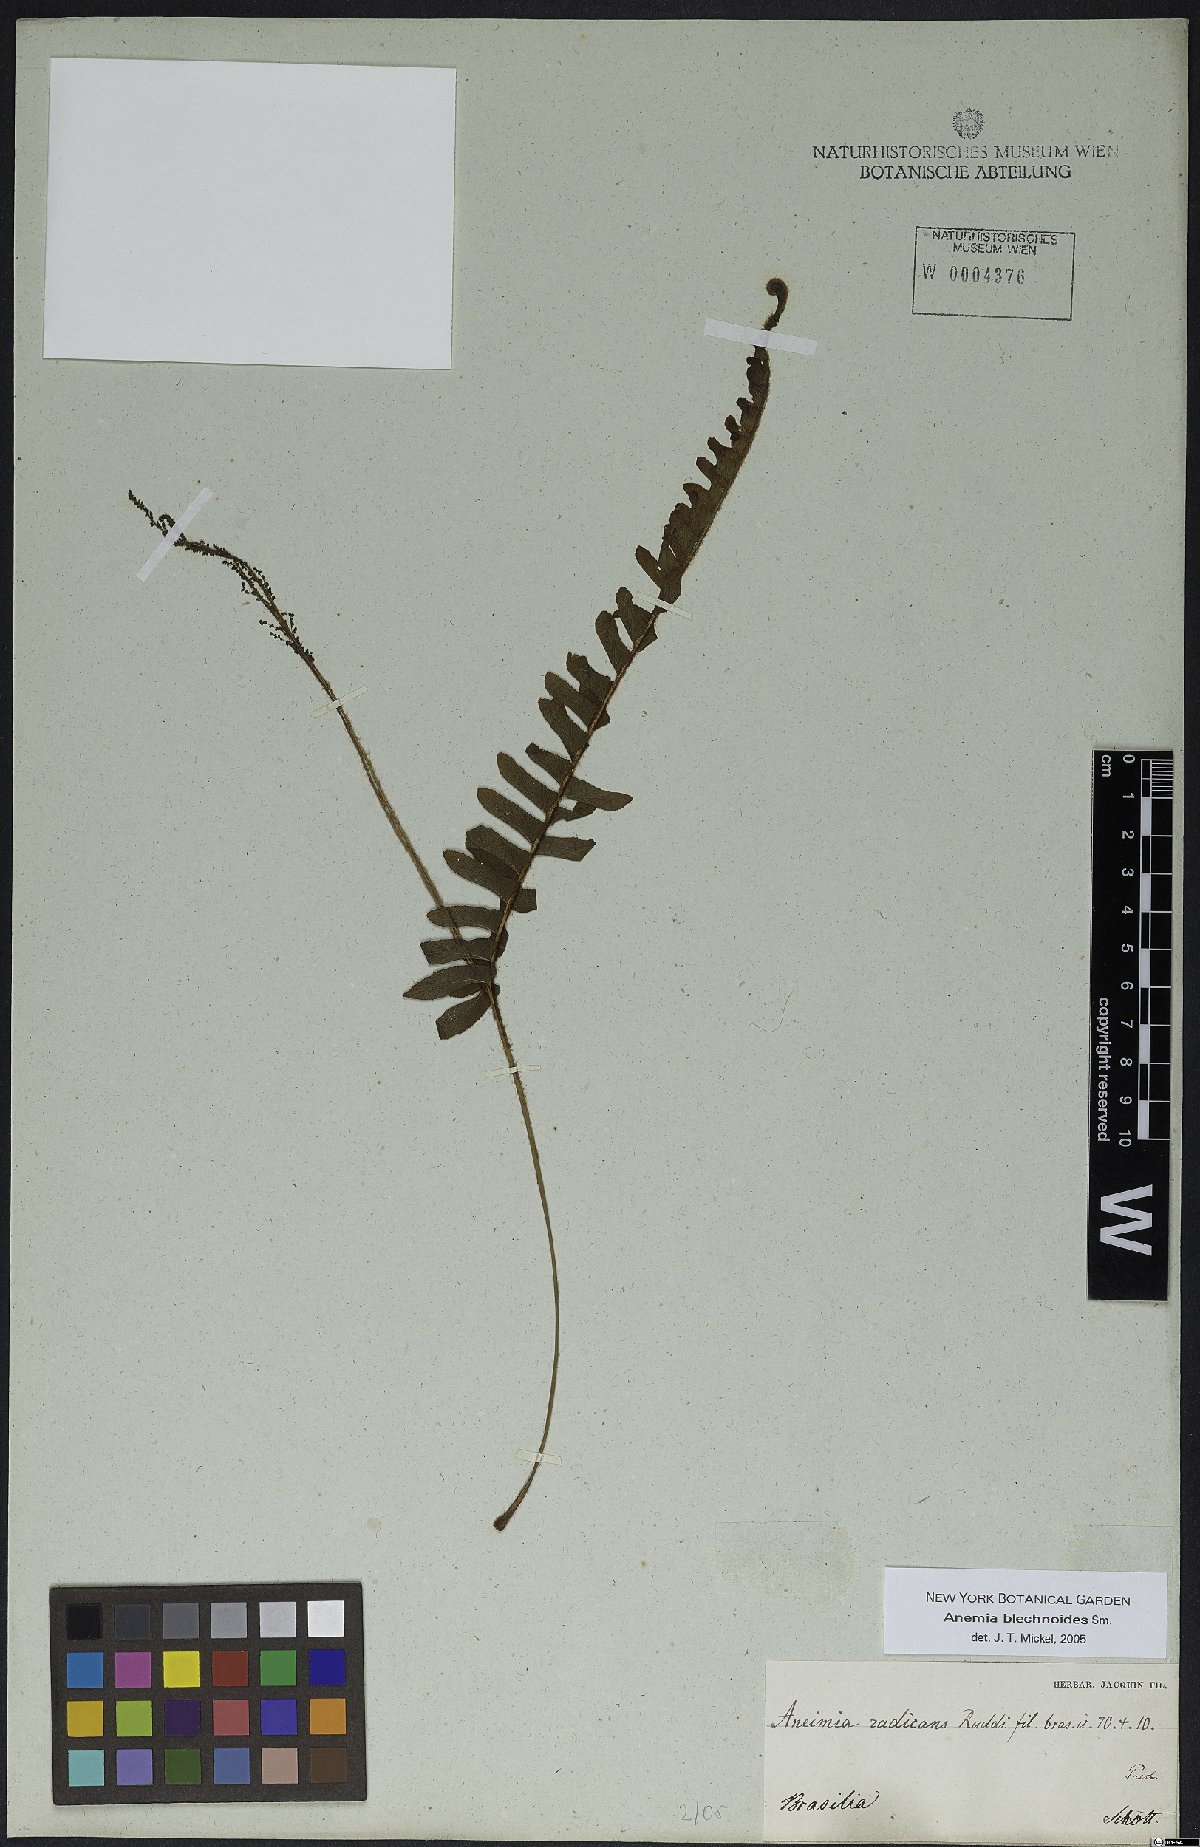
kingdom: Plantae
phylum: Tracheophyta
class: Polypodiopsida
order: Schizaeales
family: Anemiaceae
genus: Anemia
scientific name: Anemia spicantoides
